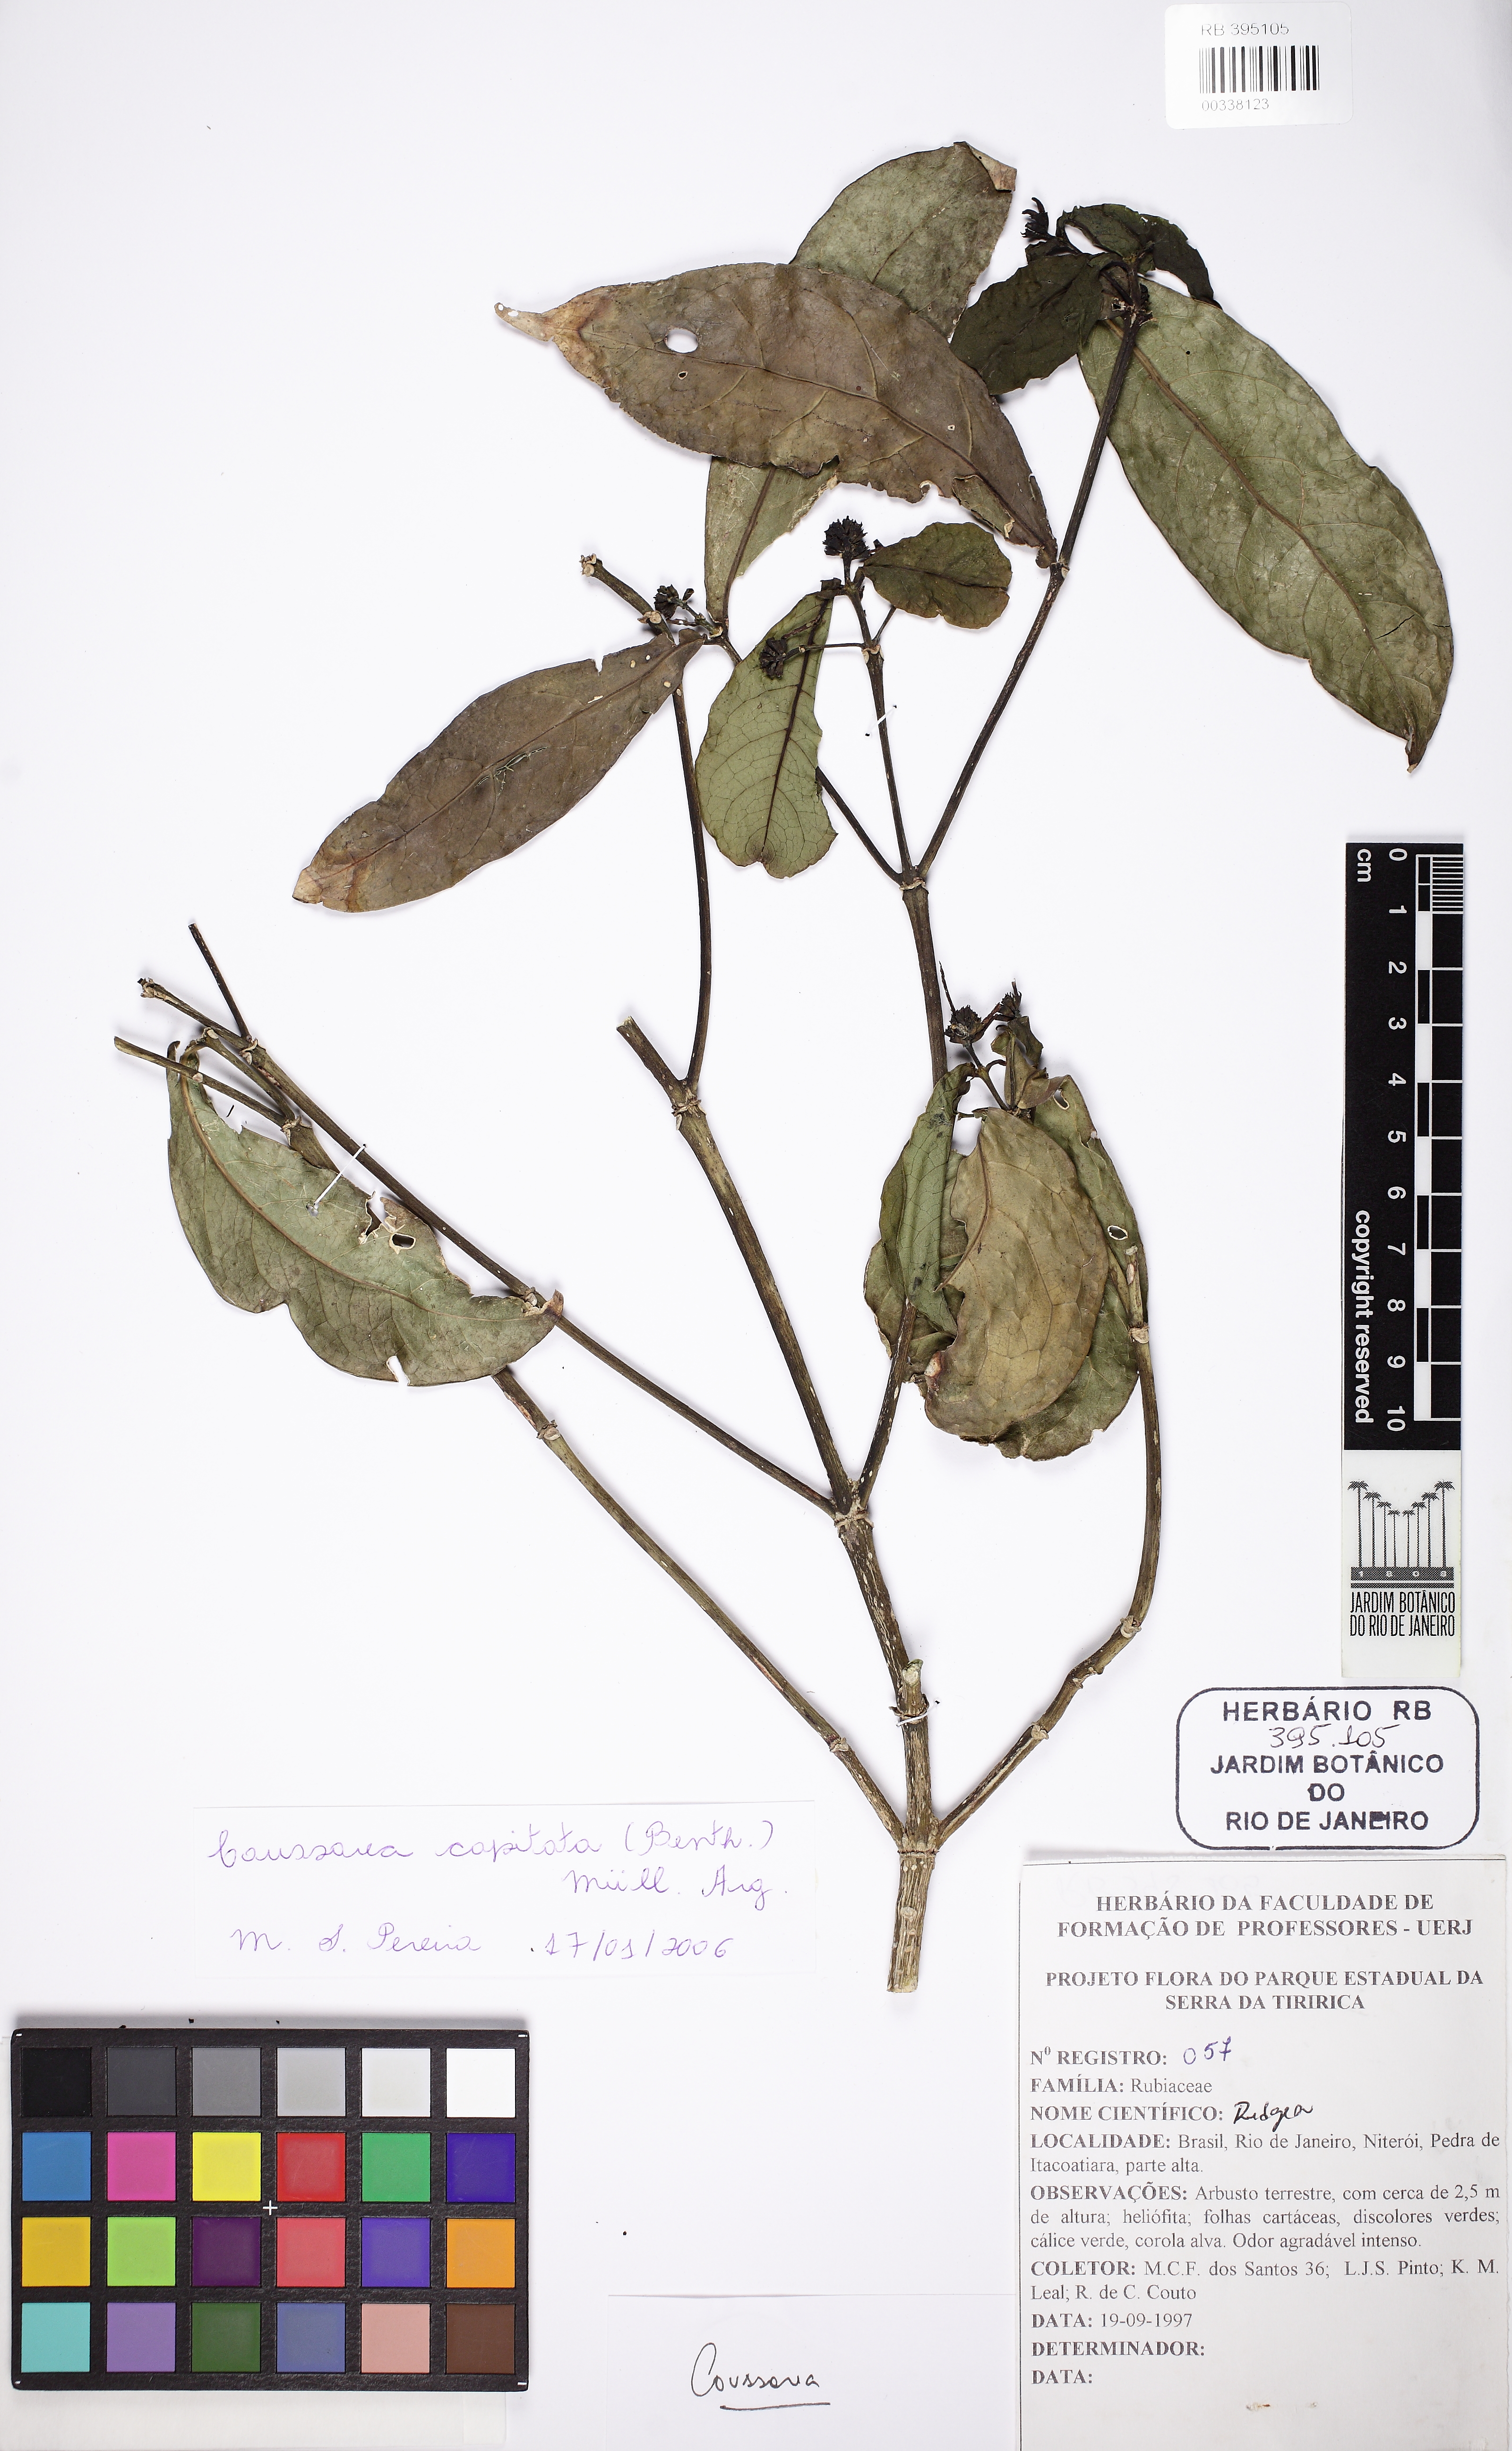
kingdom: Plantae
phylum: Tracheophyta
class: Magnoliopsida
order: Gentianales
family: Rubiaceae
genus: Coussarea
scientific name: Coussarea capitata
